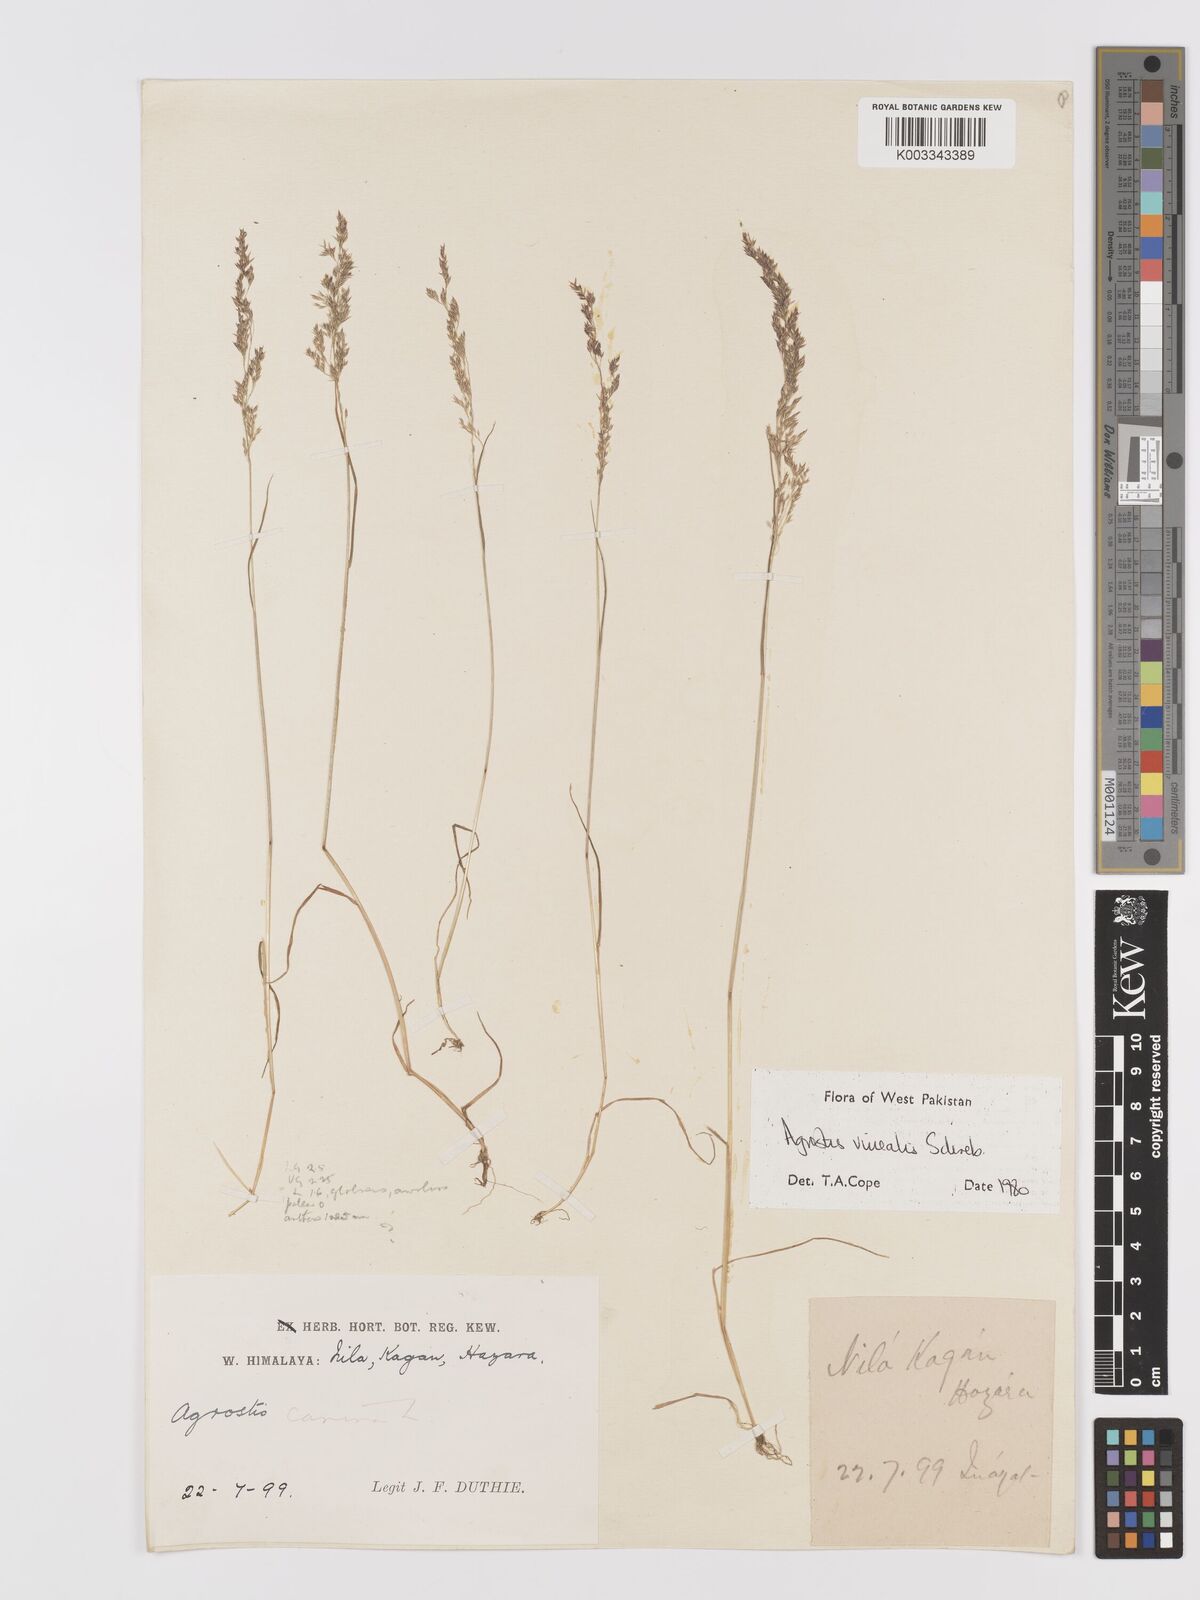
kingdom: Plantae
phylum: Tracheophyta
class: Liliopsida
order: Poales
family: Poaceae
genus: Agrostis
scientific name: Agrostis vinealis
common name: Brown bent
